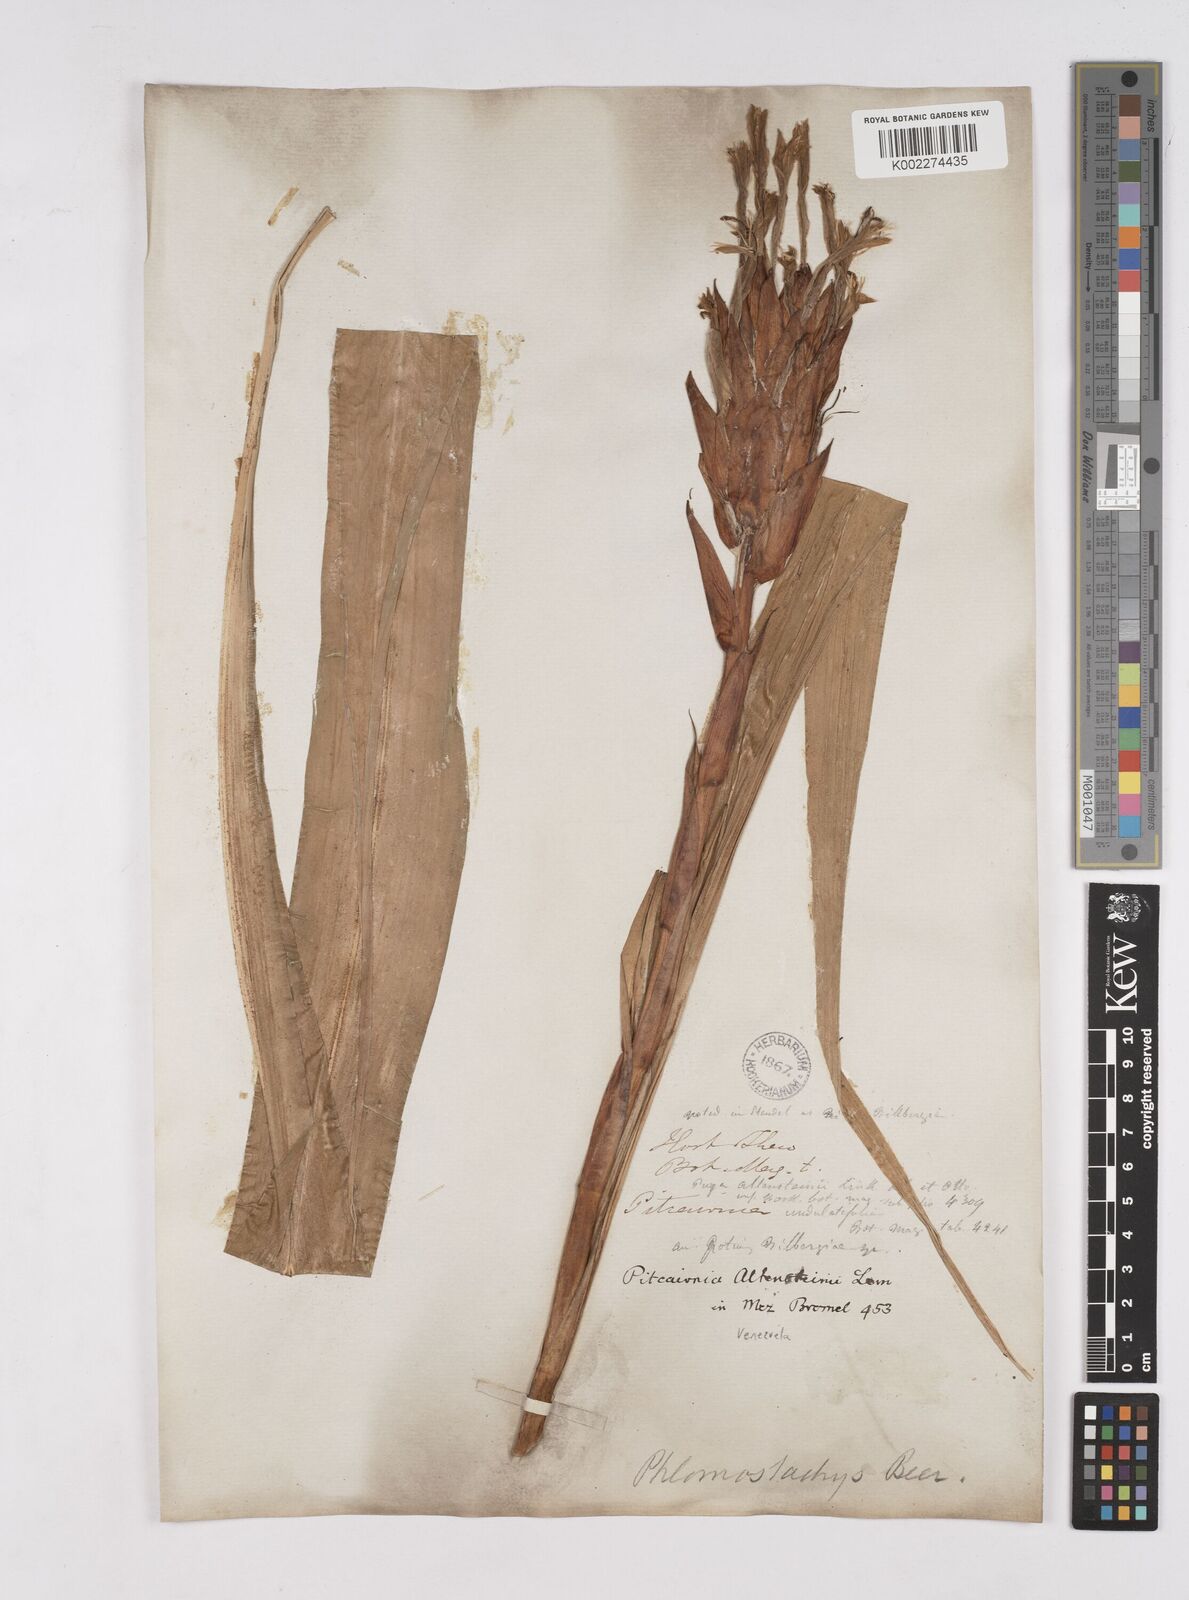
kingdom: Plantae
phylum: Tracheophyta
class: Liliopsida
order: Poales
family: Bromeliaceae
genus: Pitcairnia
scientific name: Pitcairnia altensteinii
